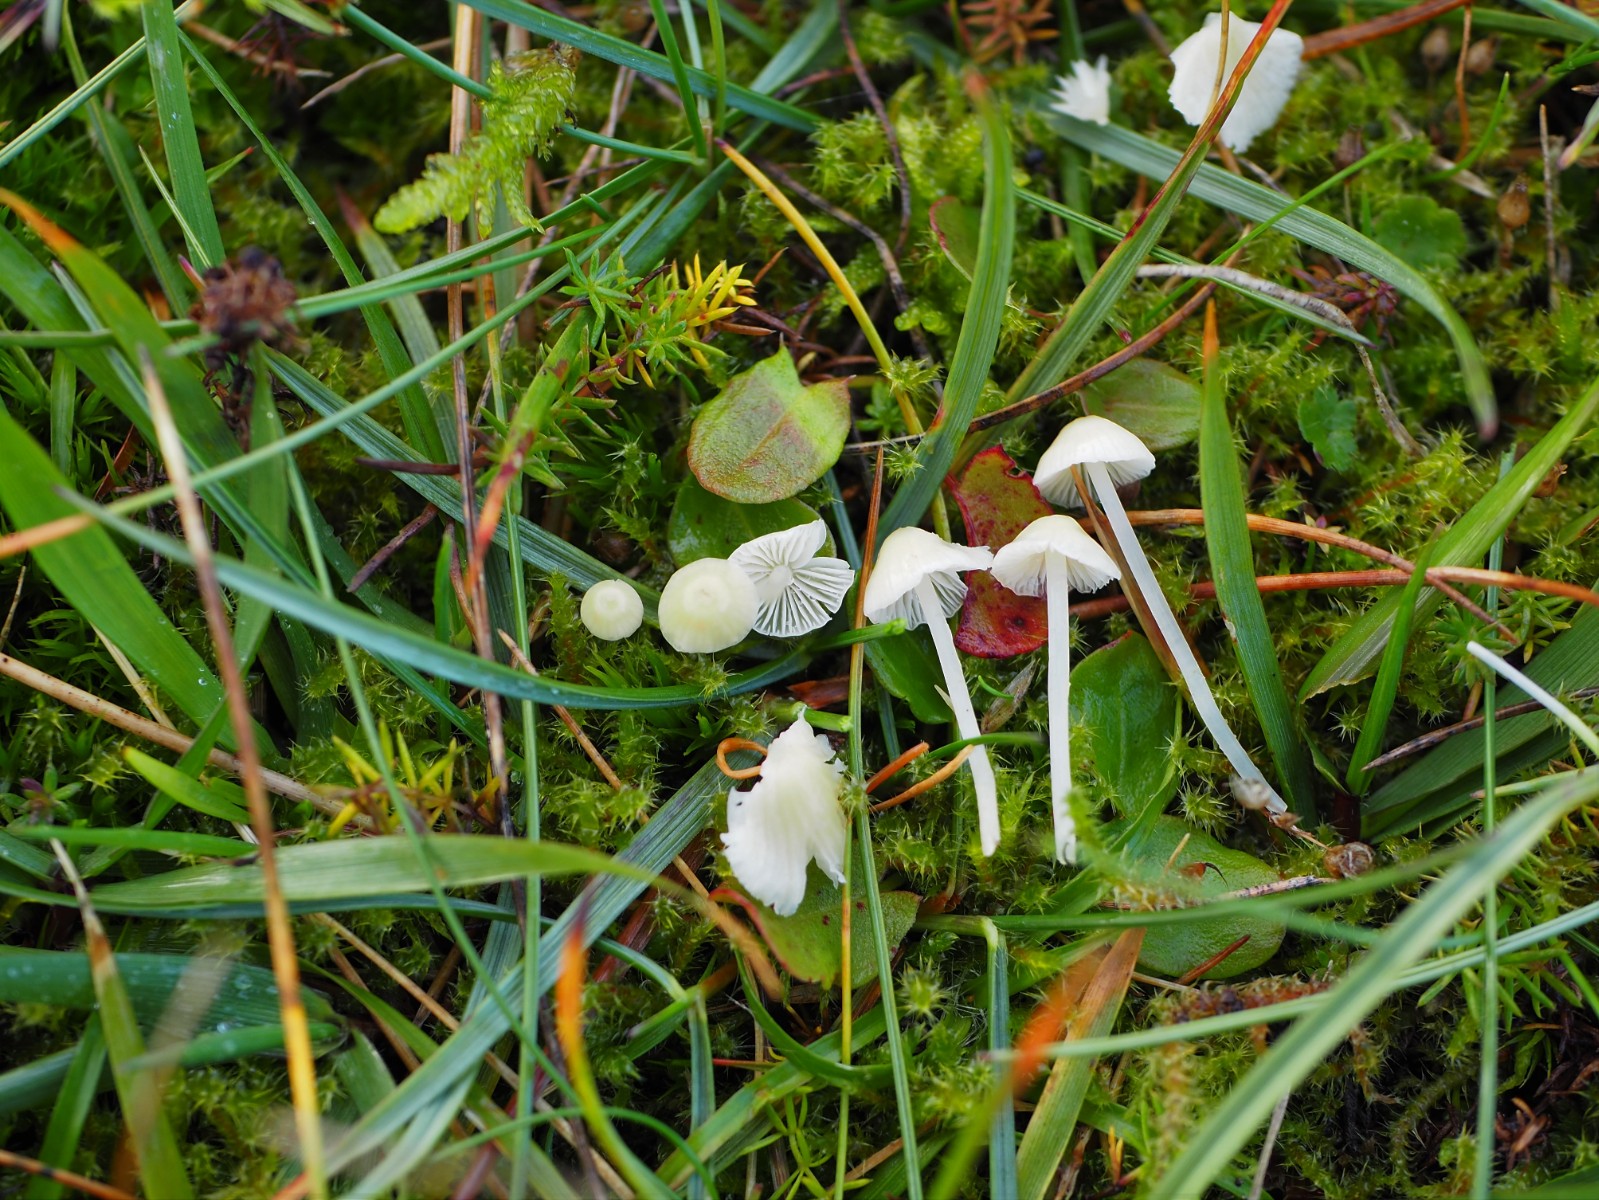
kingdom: Fungi
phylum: Basidiomycota
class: Agaricomycetes
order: Agaricales
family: Mycenaceae
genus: Atheniella
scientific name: Atheniella flavoalba
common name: gulhvid huesvamp
